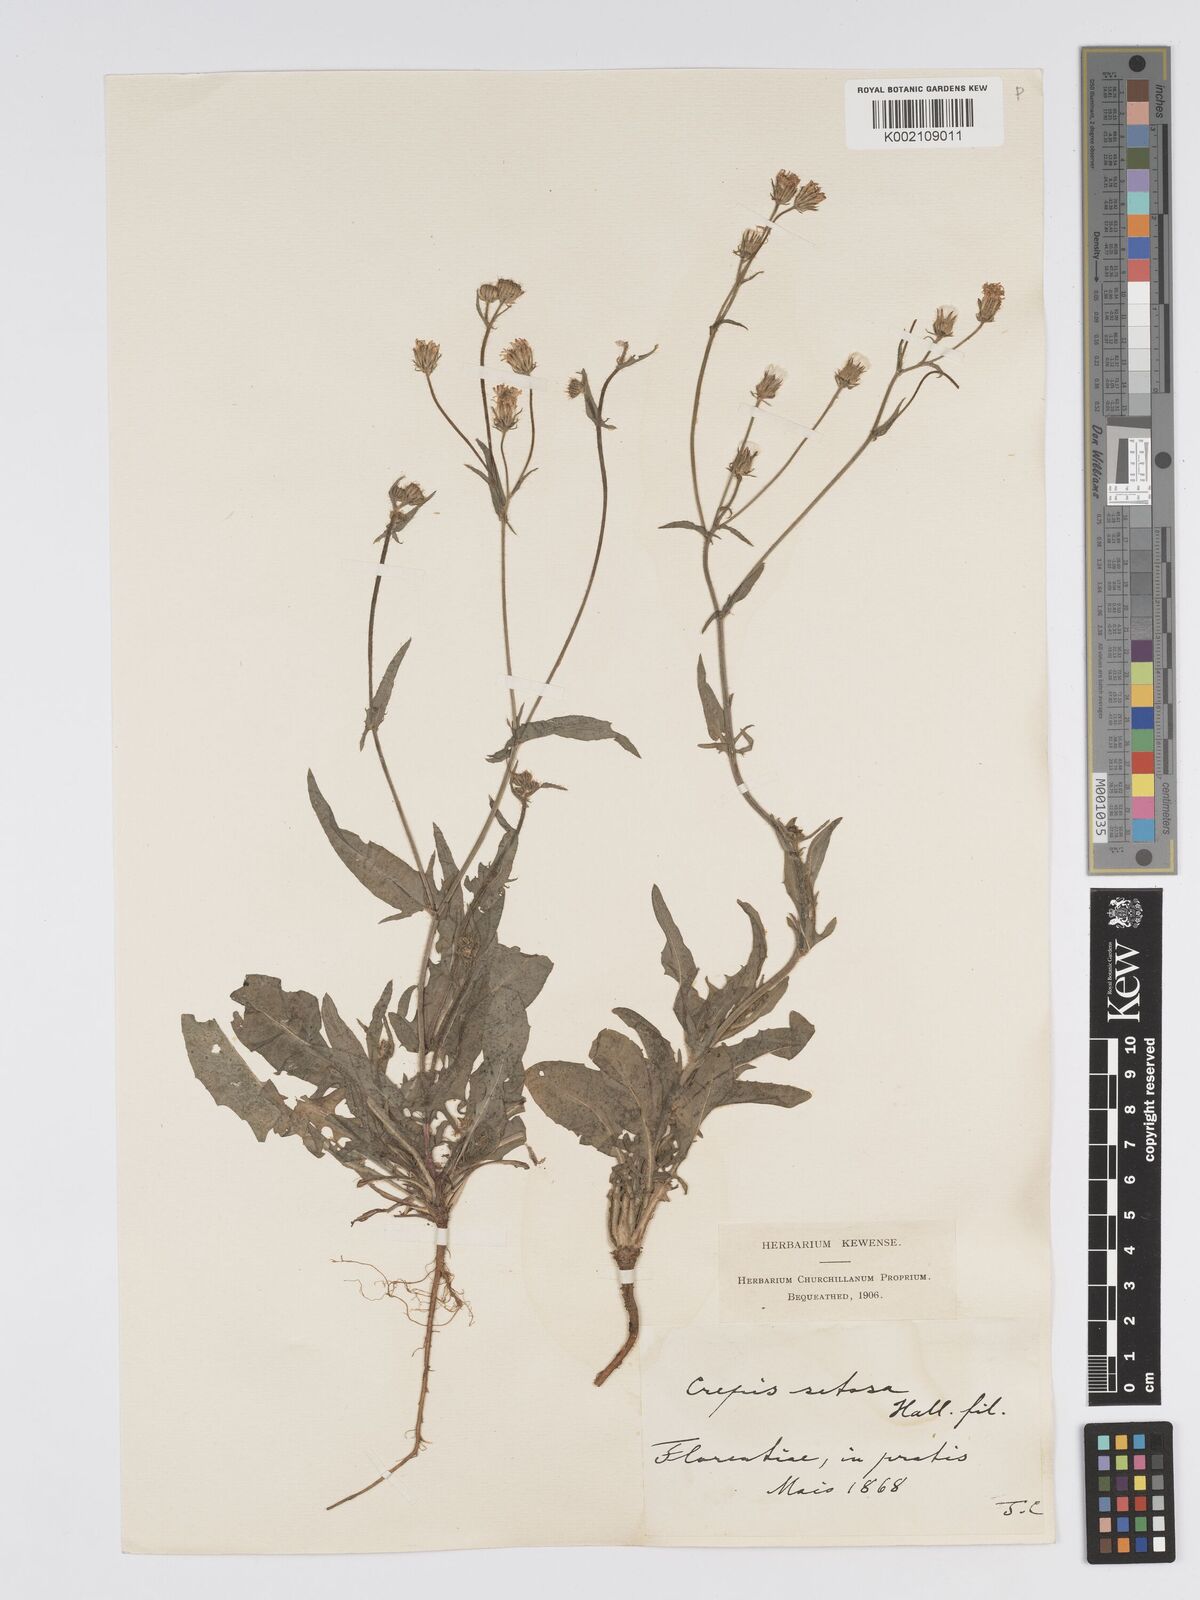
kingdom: Plantae
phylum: Tracheophyta
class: Magnoliopsida
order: Asterales
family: Asteraceae
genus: Crepis
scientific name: Crepis setosa
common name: Bristly hawk's-beard
